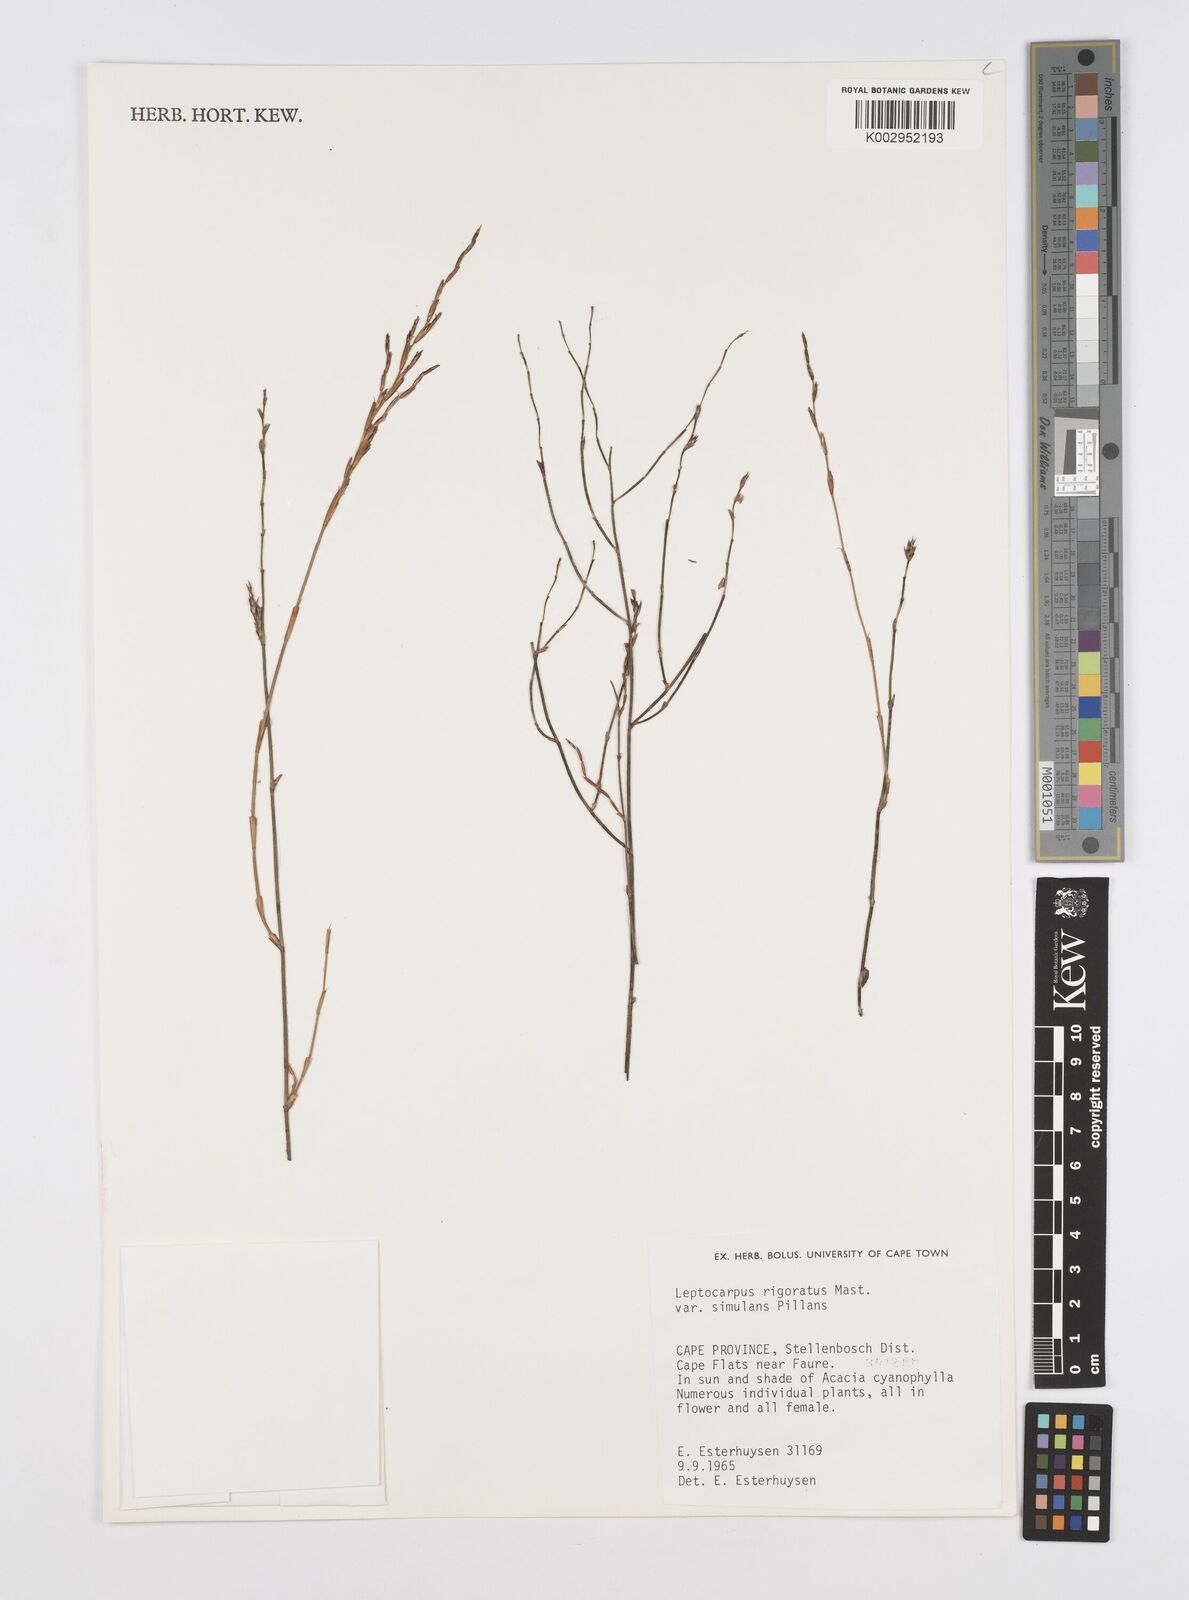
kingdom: Plantae
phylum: Tracheophyta
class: Liliopsida
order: Poales
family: Restionaceae
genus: Restio
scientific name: Restio rigoratus
